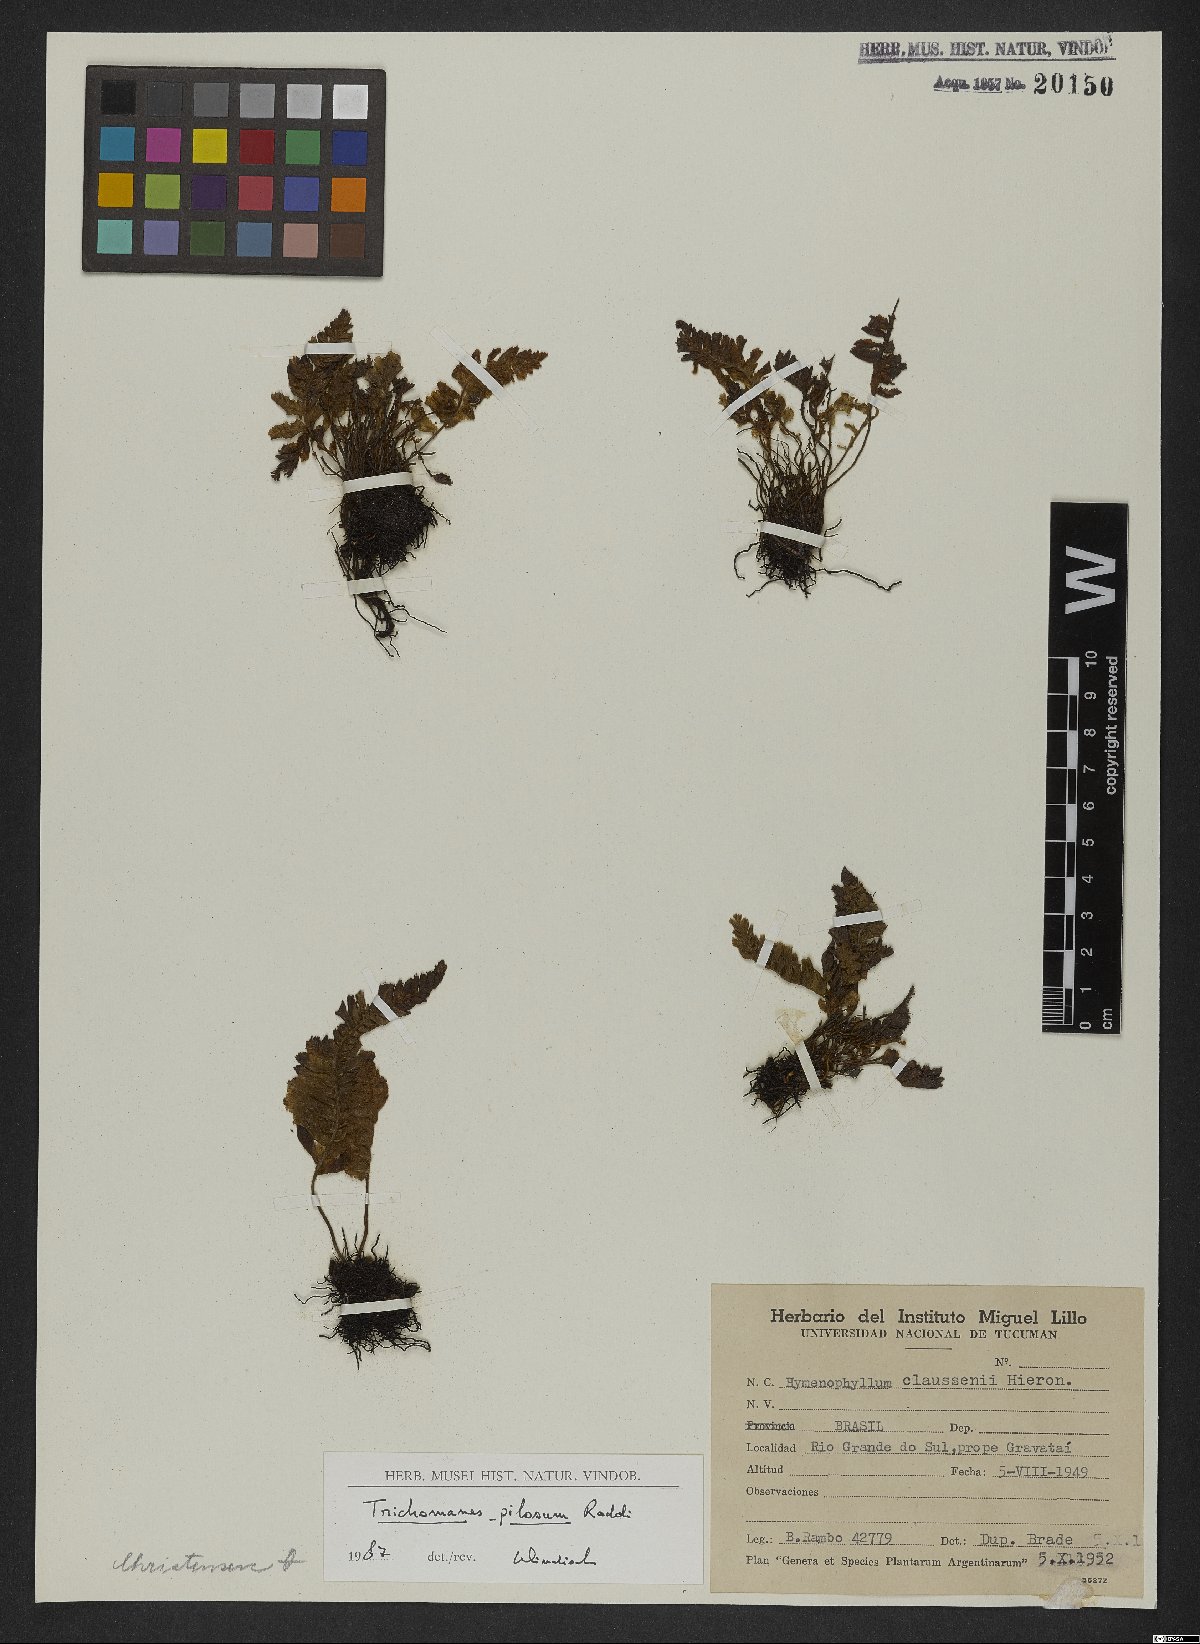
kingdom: Plantae
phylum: Tracheophyta
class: Polypodiopsida
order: Hymenophyllales
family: Hymenophyllaceae
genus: Trichomanes
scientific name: Trichomanes pilosum
